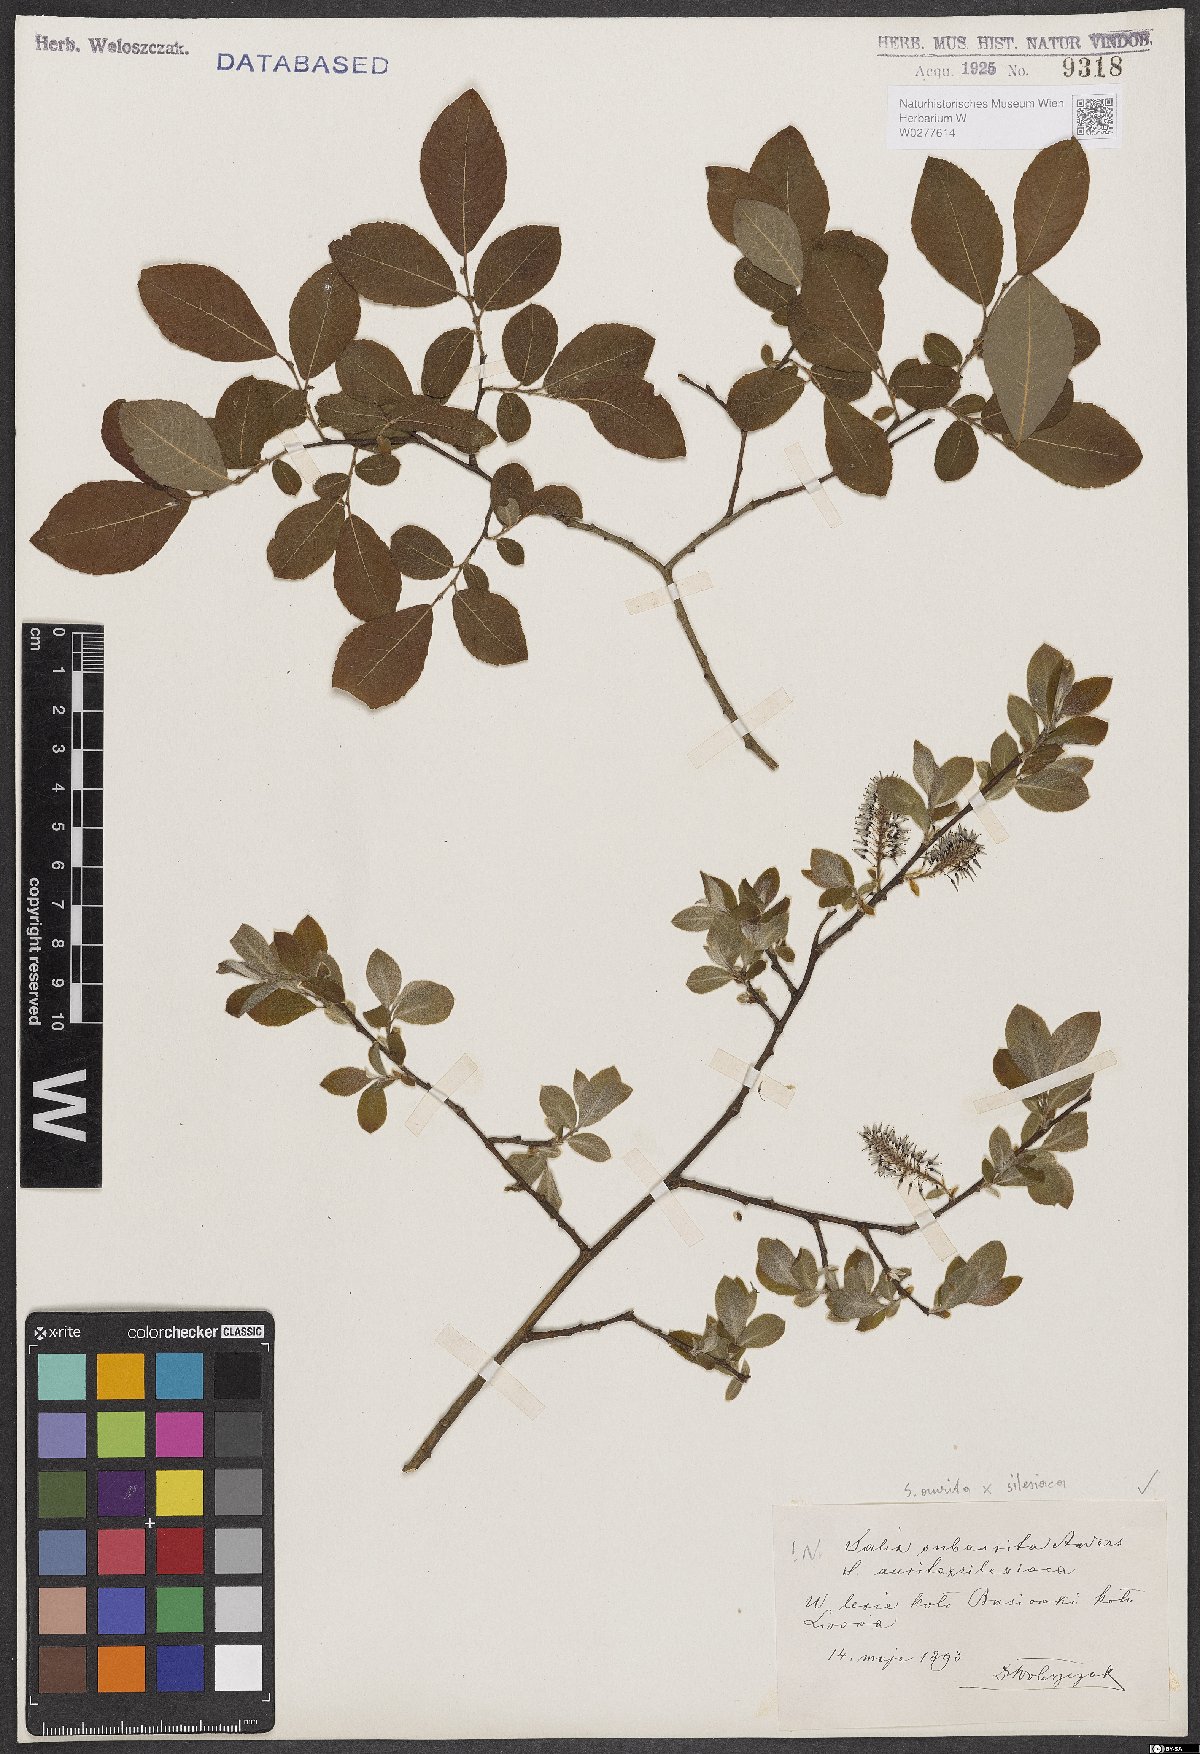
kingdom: Plantae
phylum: Tracheophyta
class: Magnoliopsida
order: Malpighiales
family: Salicaceae
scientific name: Salicaceae
